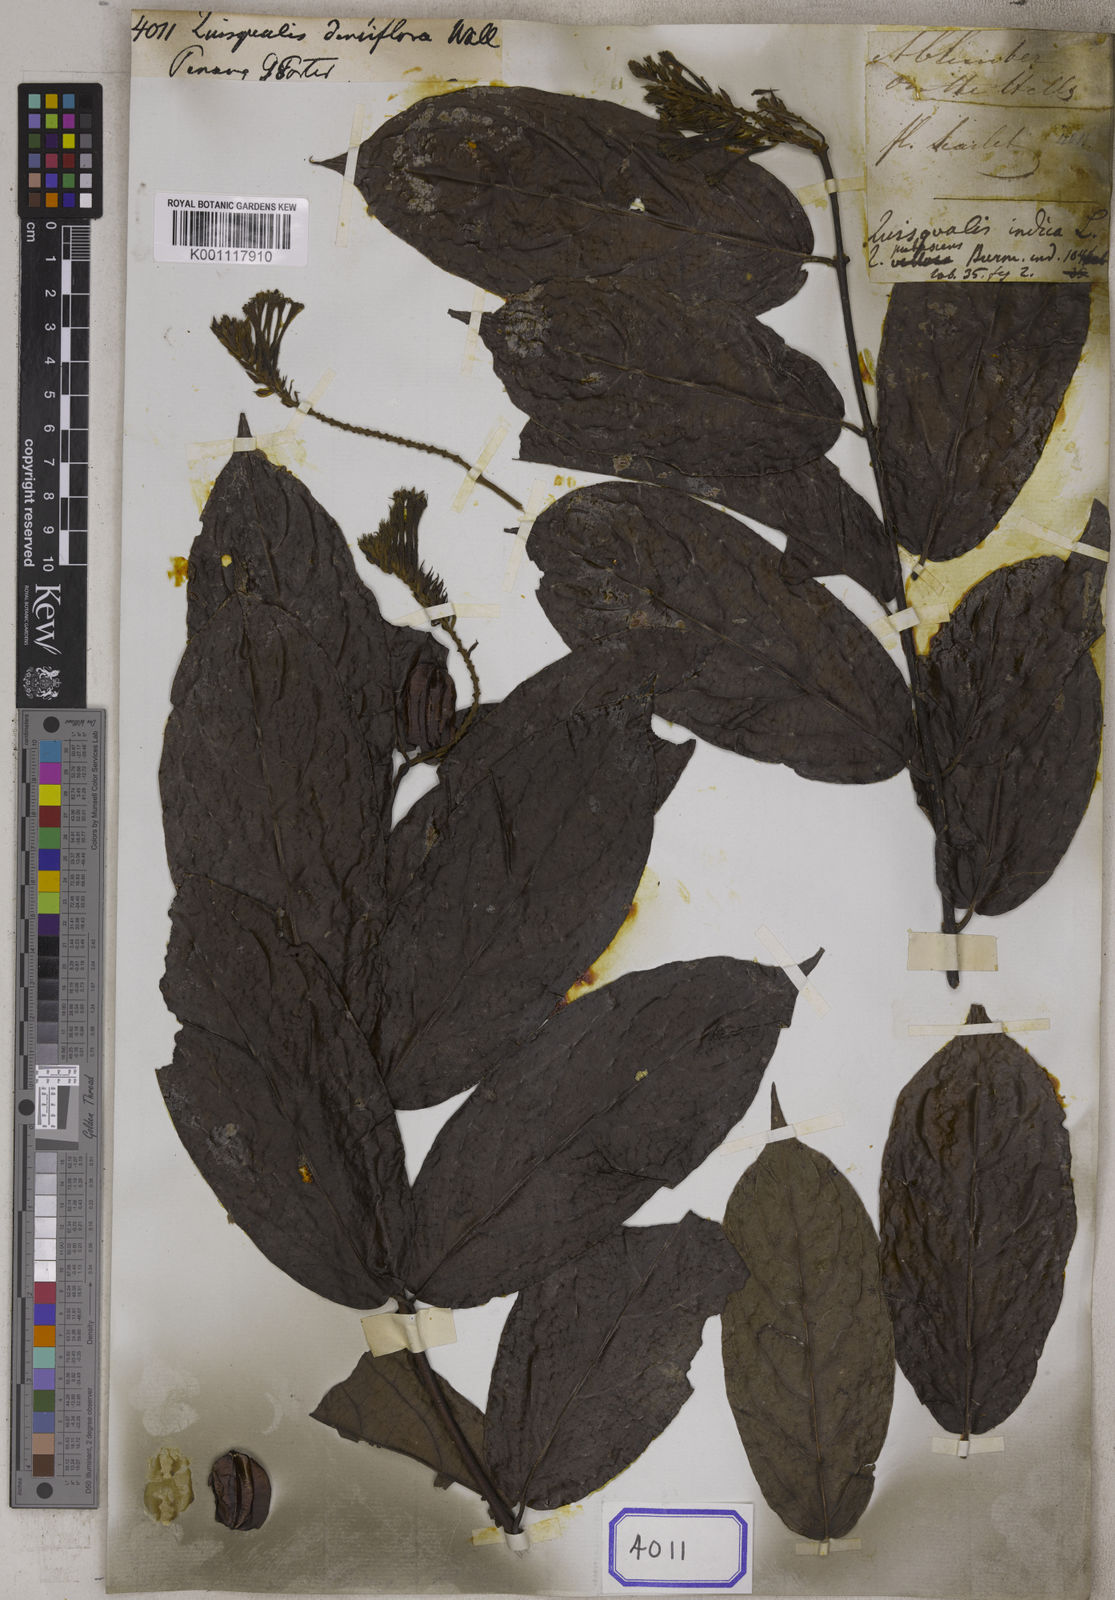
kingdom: Plantae
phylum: Tracheophyta
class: Magnoliopsida
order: Myrtales
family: Combretaceae
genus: Combretum
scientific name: Combretum
